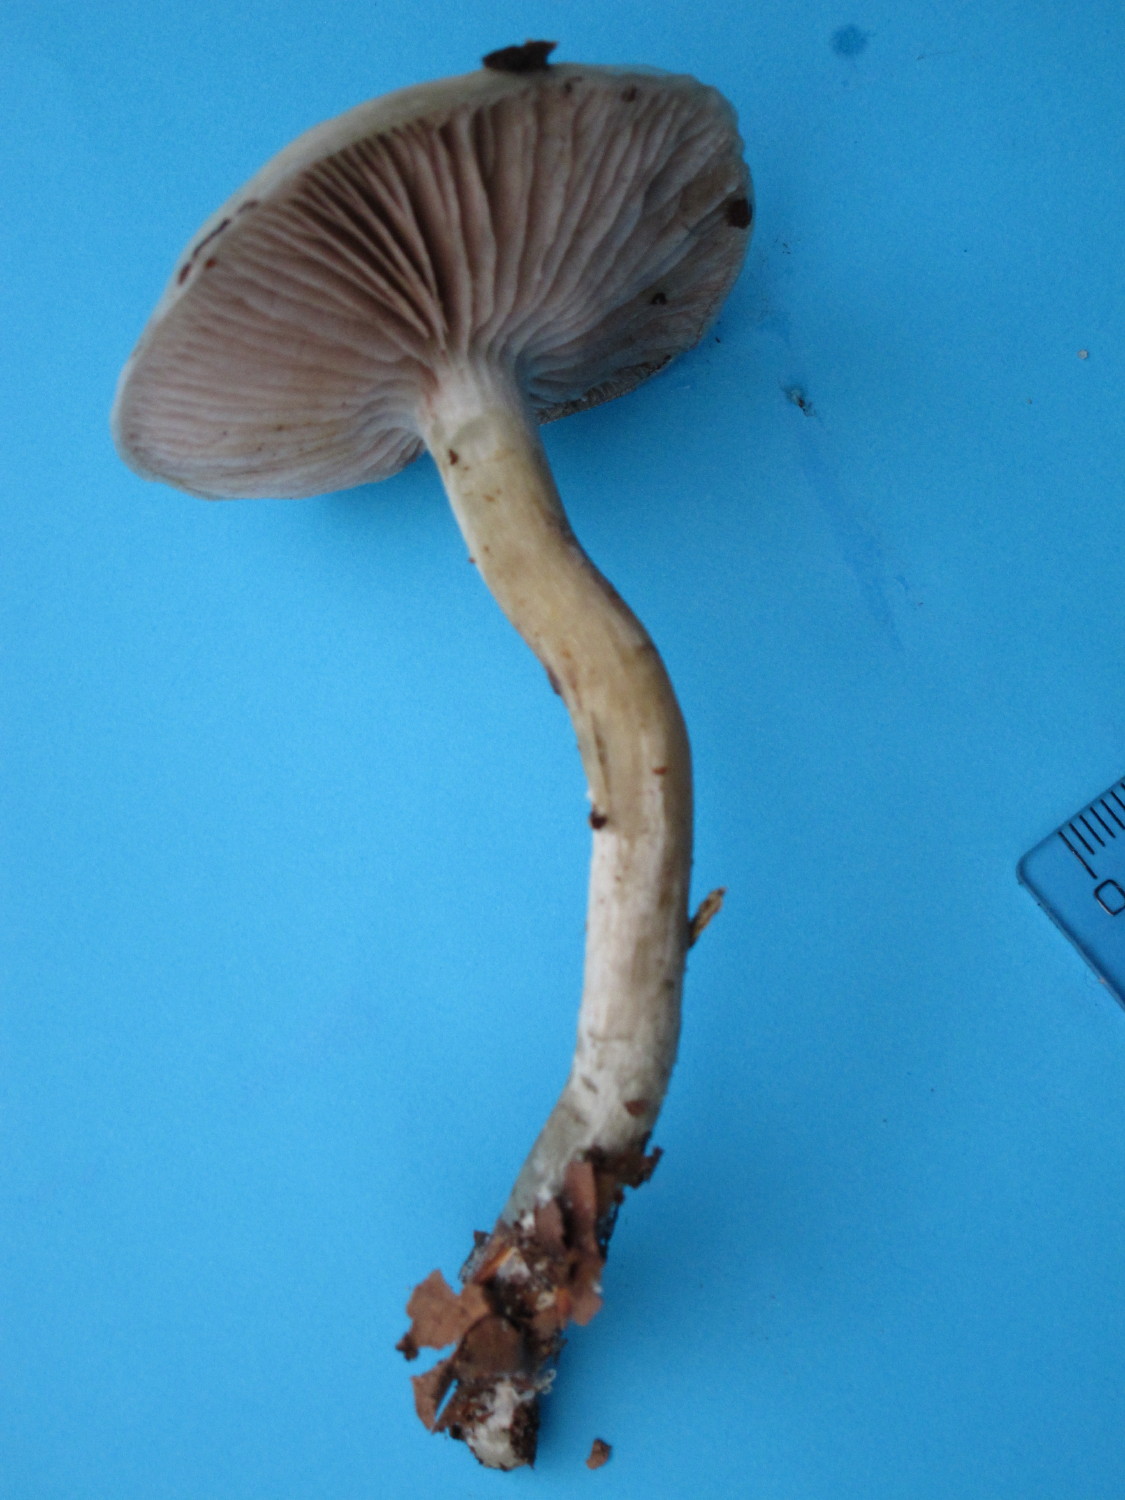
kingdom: Fungi
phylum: Basidiomycota
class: Agaricomycetes
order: Agaricales
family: Strophariaceae
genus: Stropharia
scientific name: Stropharia cyanea
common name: blågrøn bredblad
